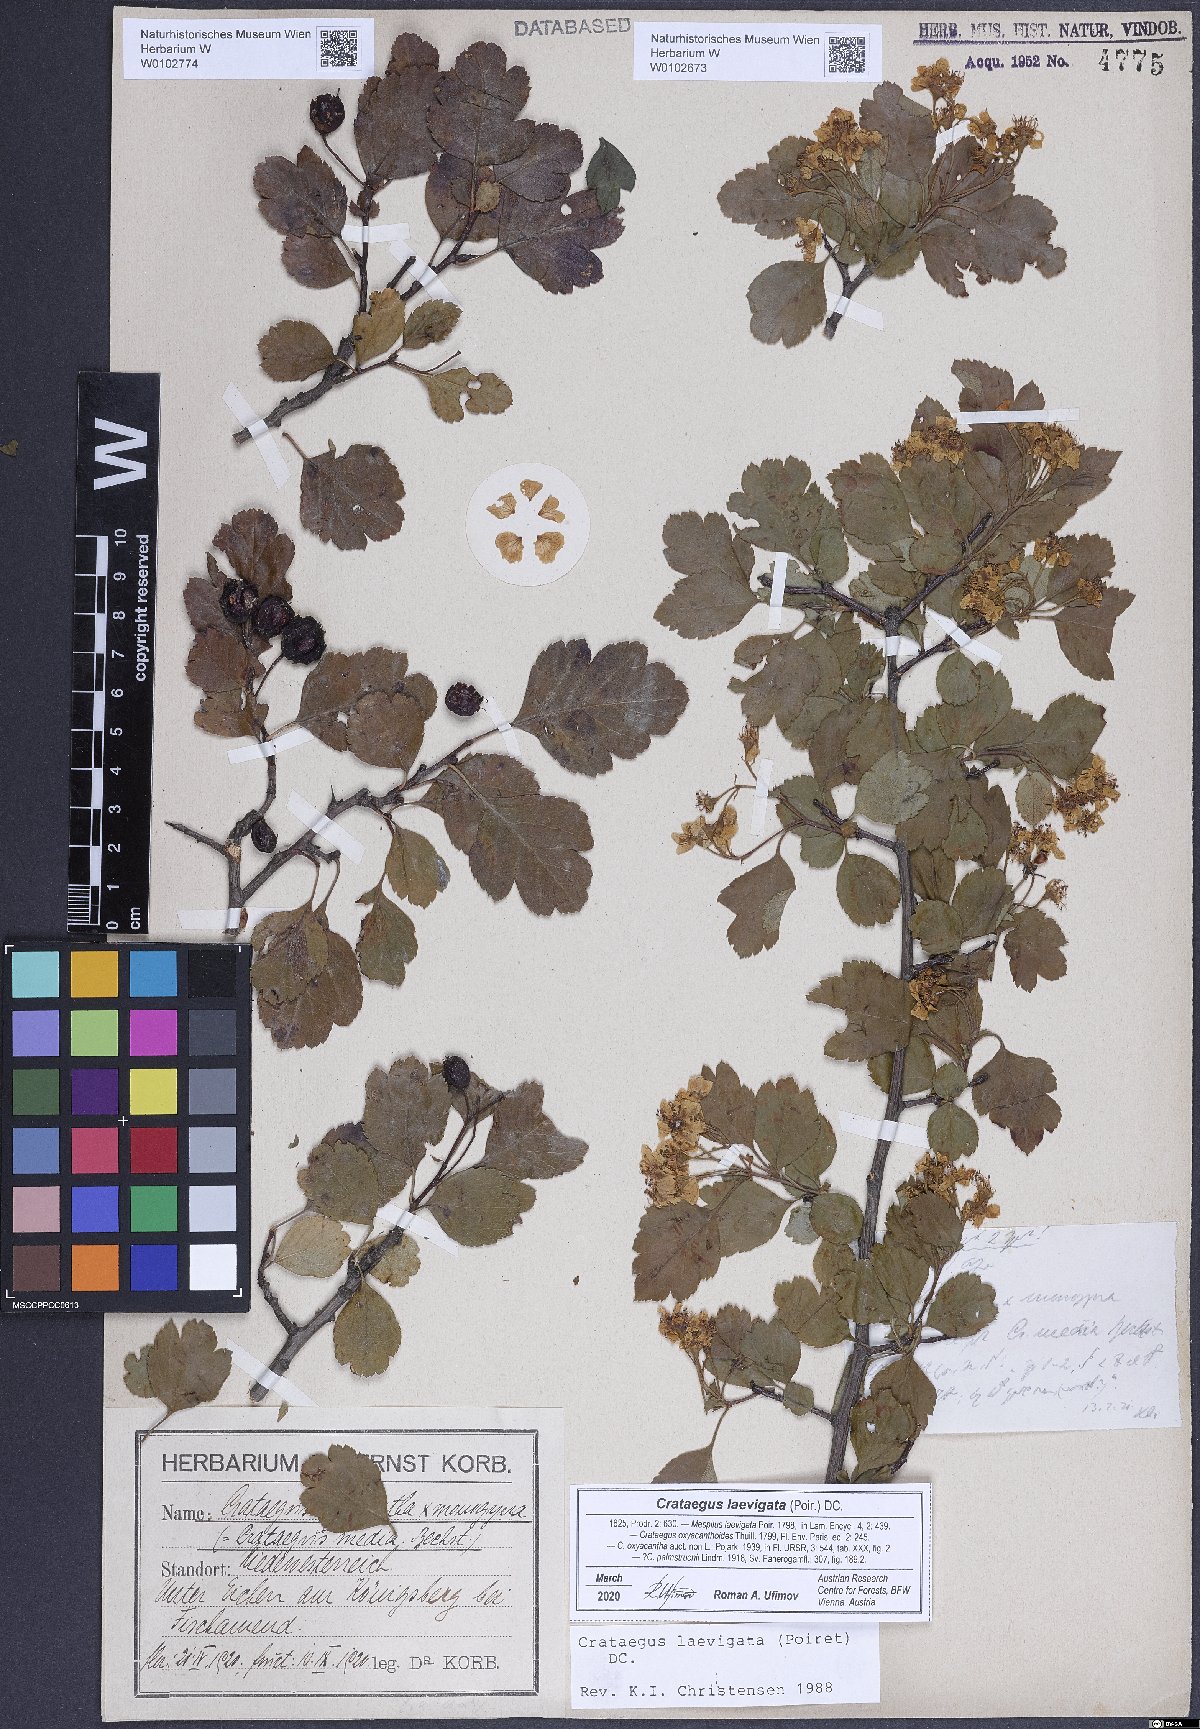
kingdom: Plantae
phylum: Tracheophyta
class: Magnoliopsida
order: Rosales
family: Rosaceae
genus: Crataegus
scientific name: Crataegus laevigata
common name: Midland hawthorn
